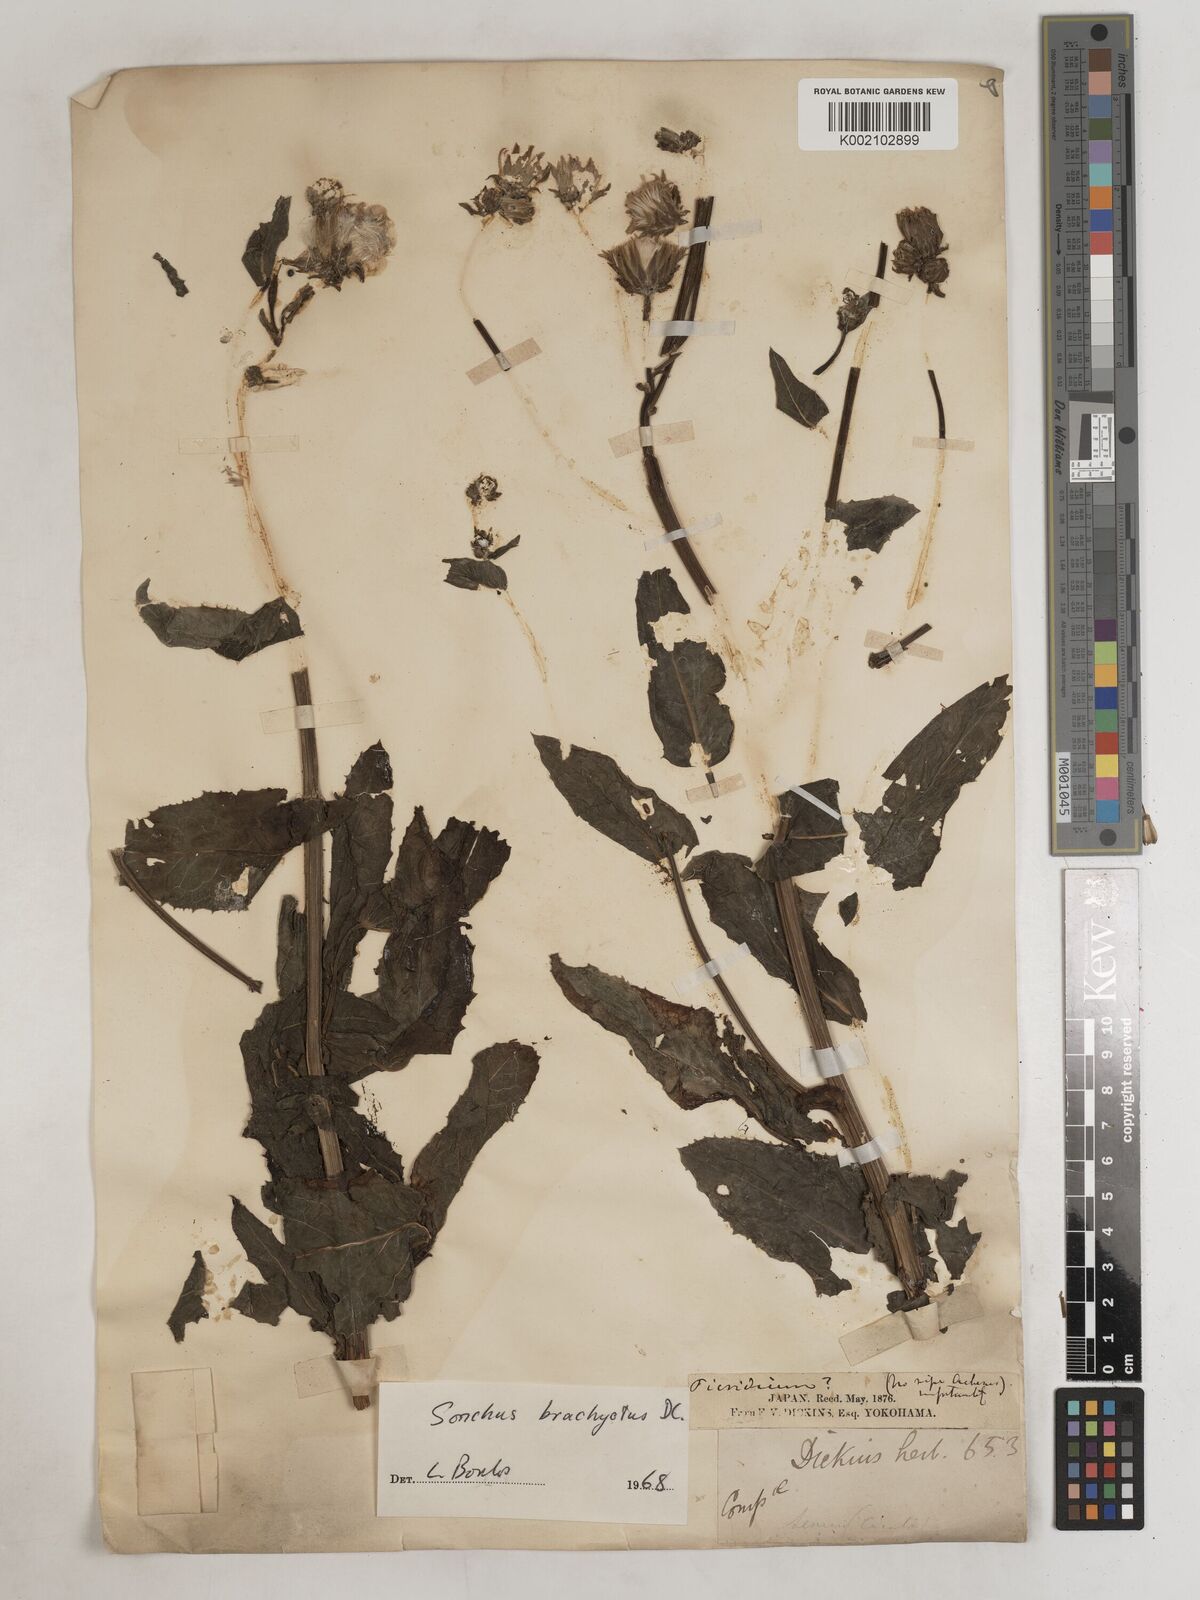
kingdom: Plantae
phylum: Tracheophyta
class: Magnoliopsida
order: Asterales
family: Asteraceae
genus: Sonchus
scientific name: Sonchus
